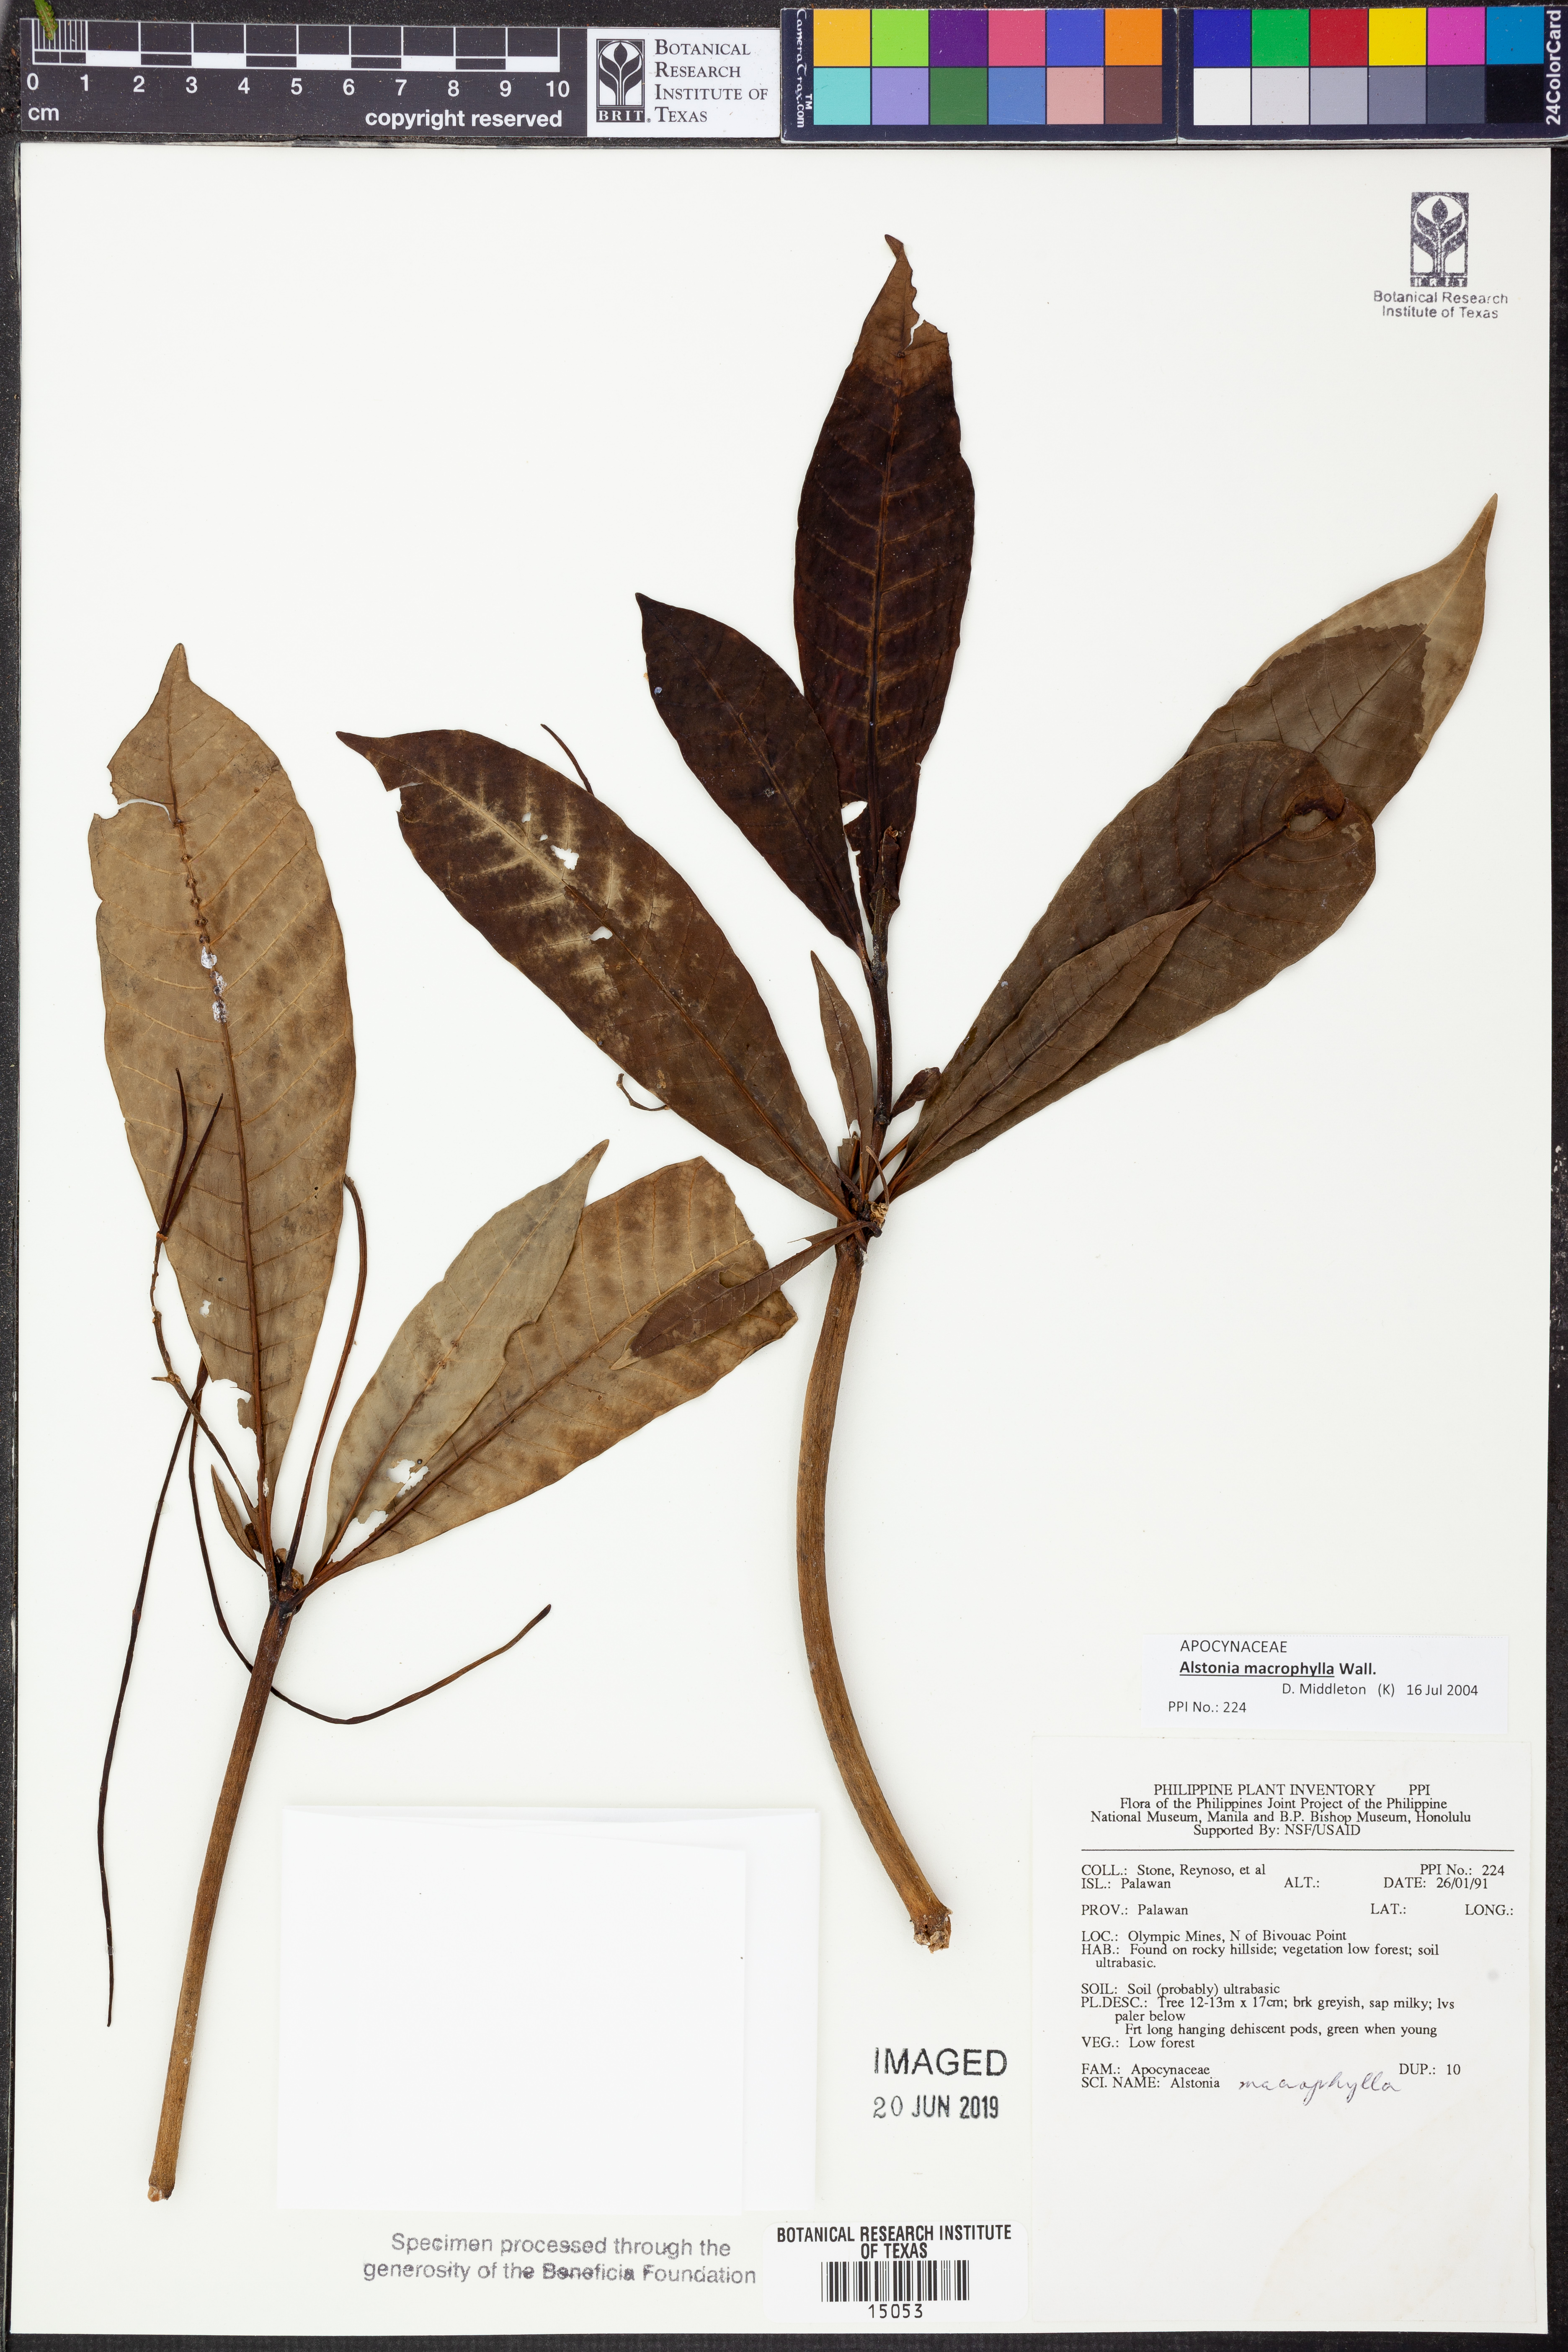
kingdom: Plantae
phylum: Tracheophyta
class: Magnoliopsida
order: Gentianales
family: Apocynaceae
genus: Alstonia
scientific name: Alstonia macrophylla
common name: Deviltree
